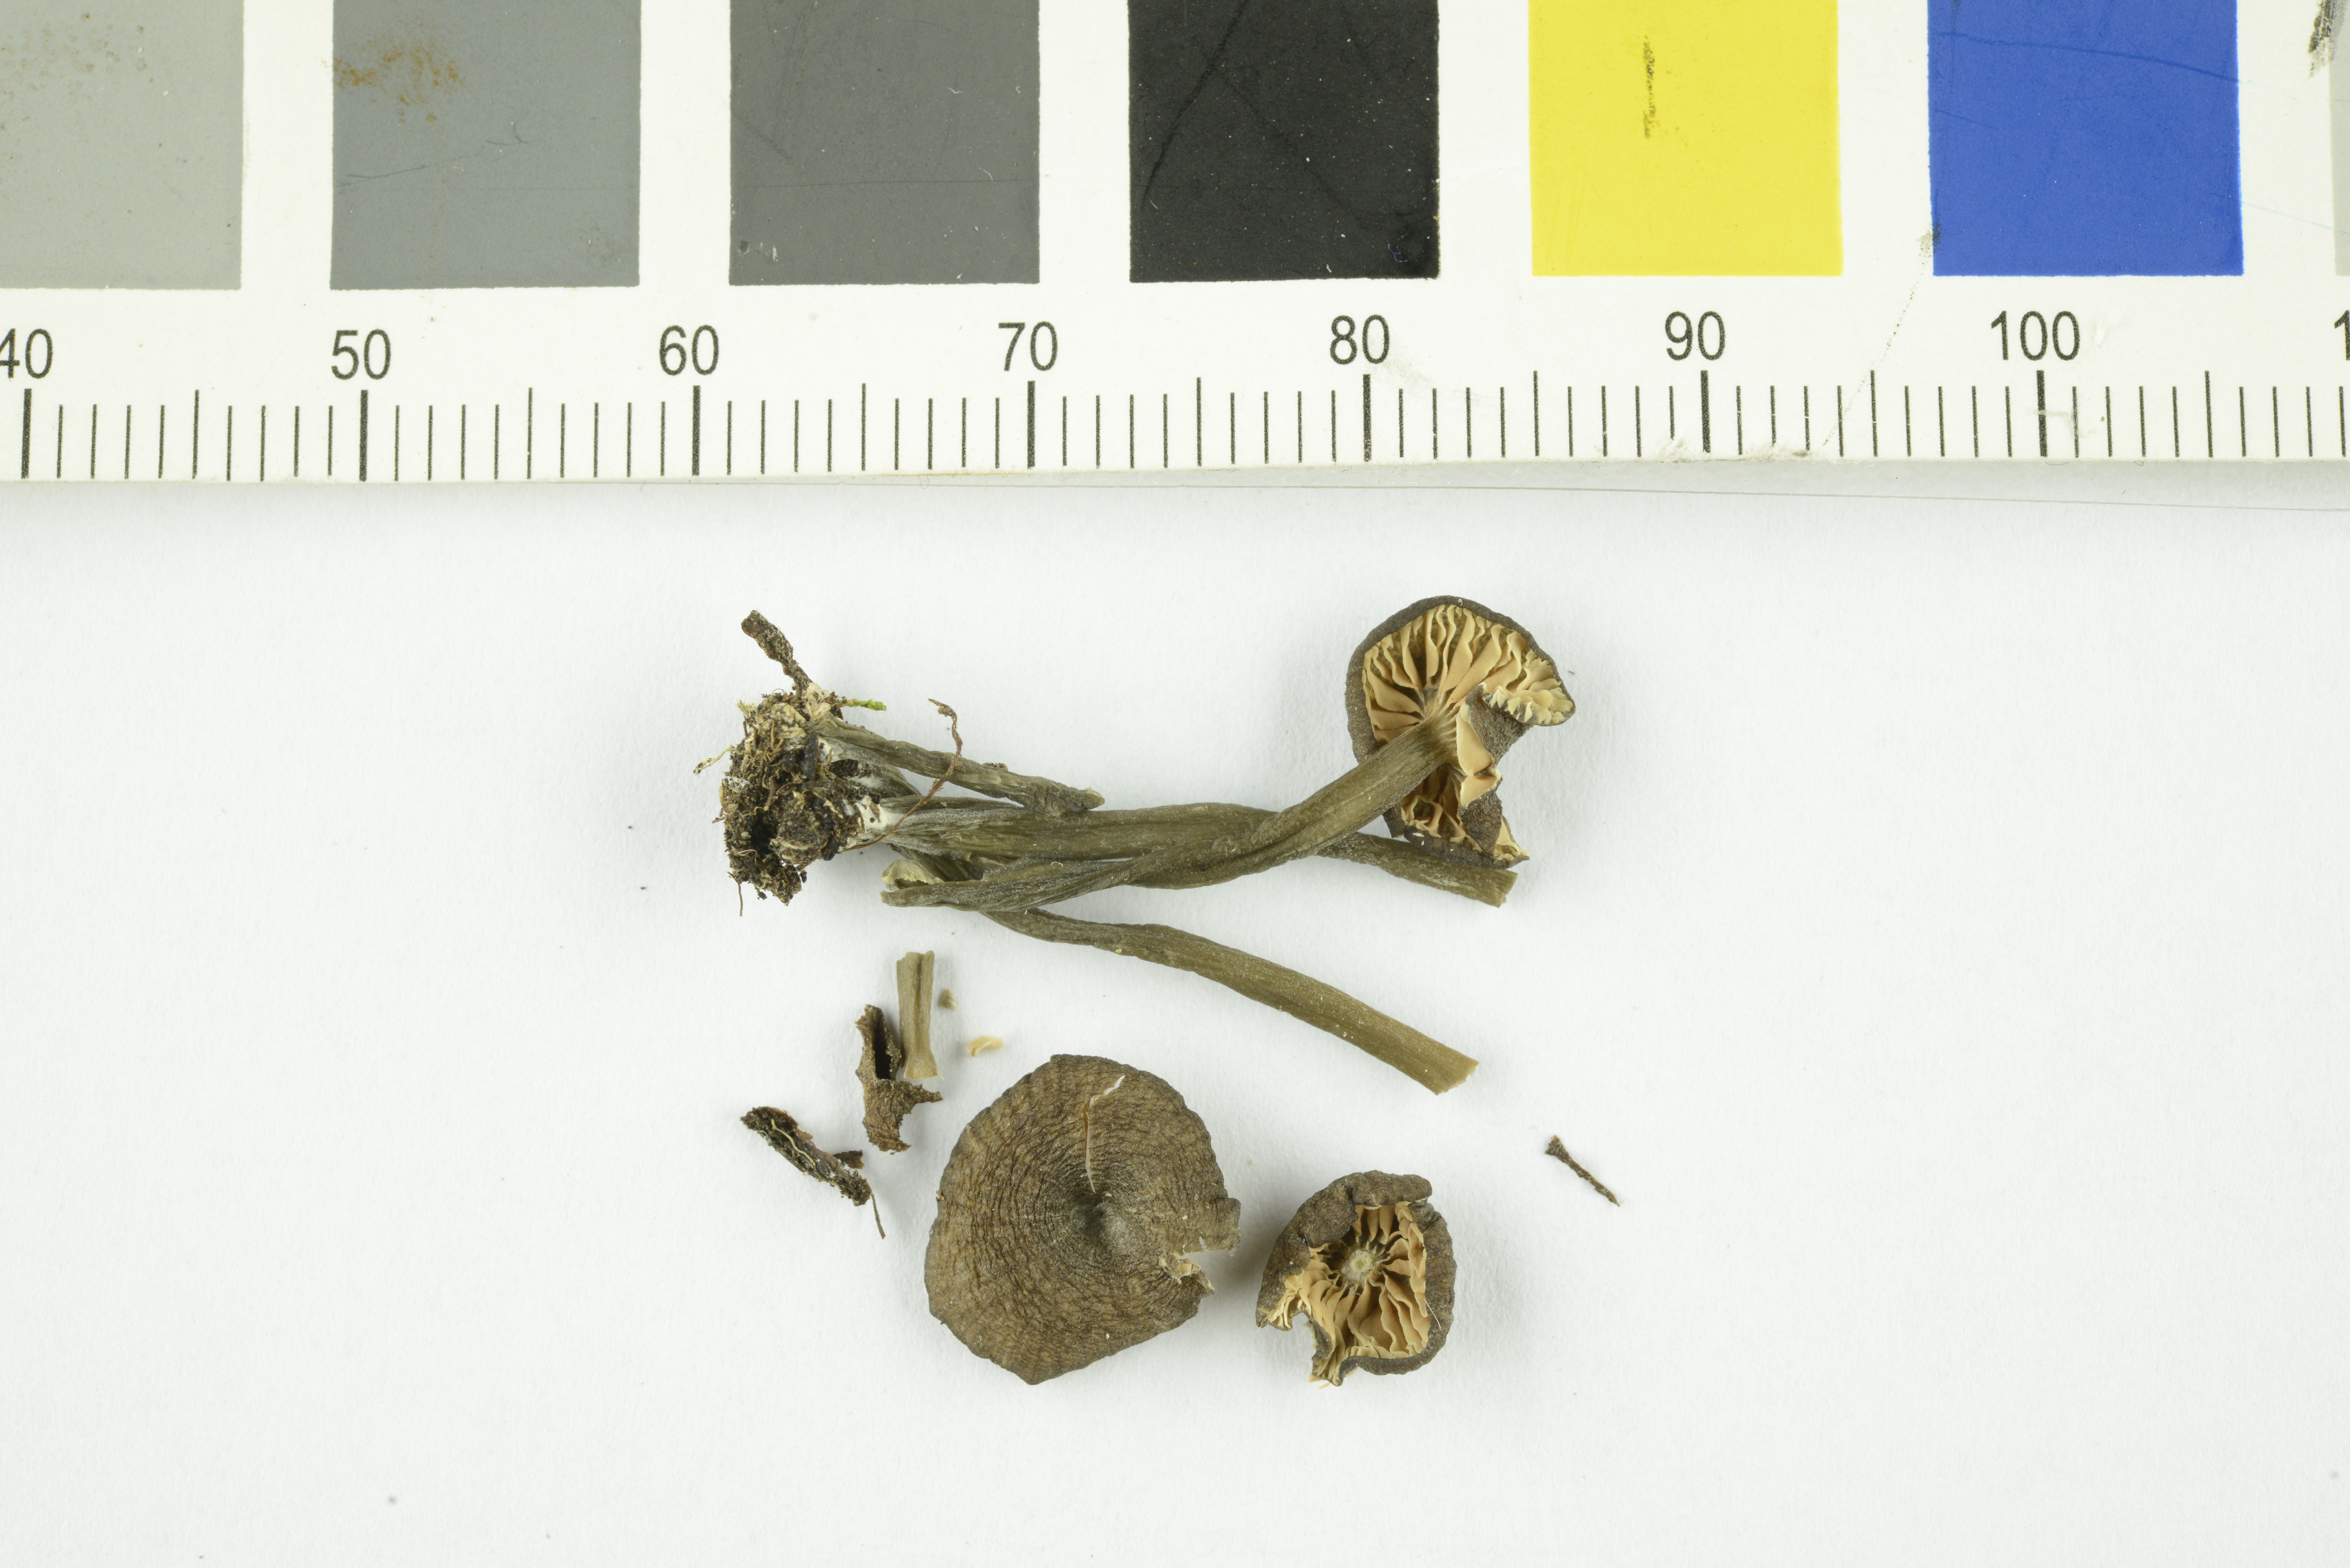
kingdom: Fungi
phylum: Basidiomycota
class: Agaricomycetes
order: Agaricales
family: Entolomataceae
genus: Entoloma
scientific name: Entoloma allospermum
